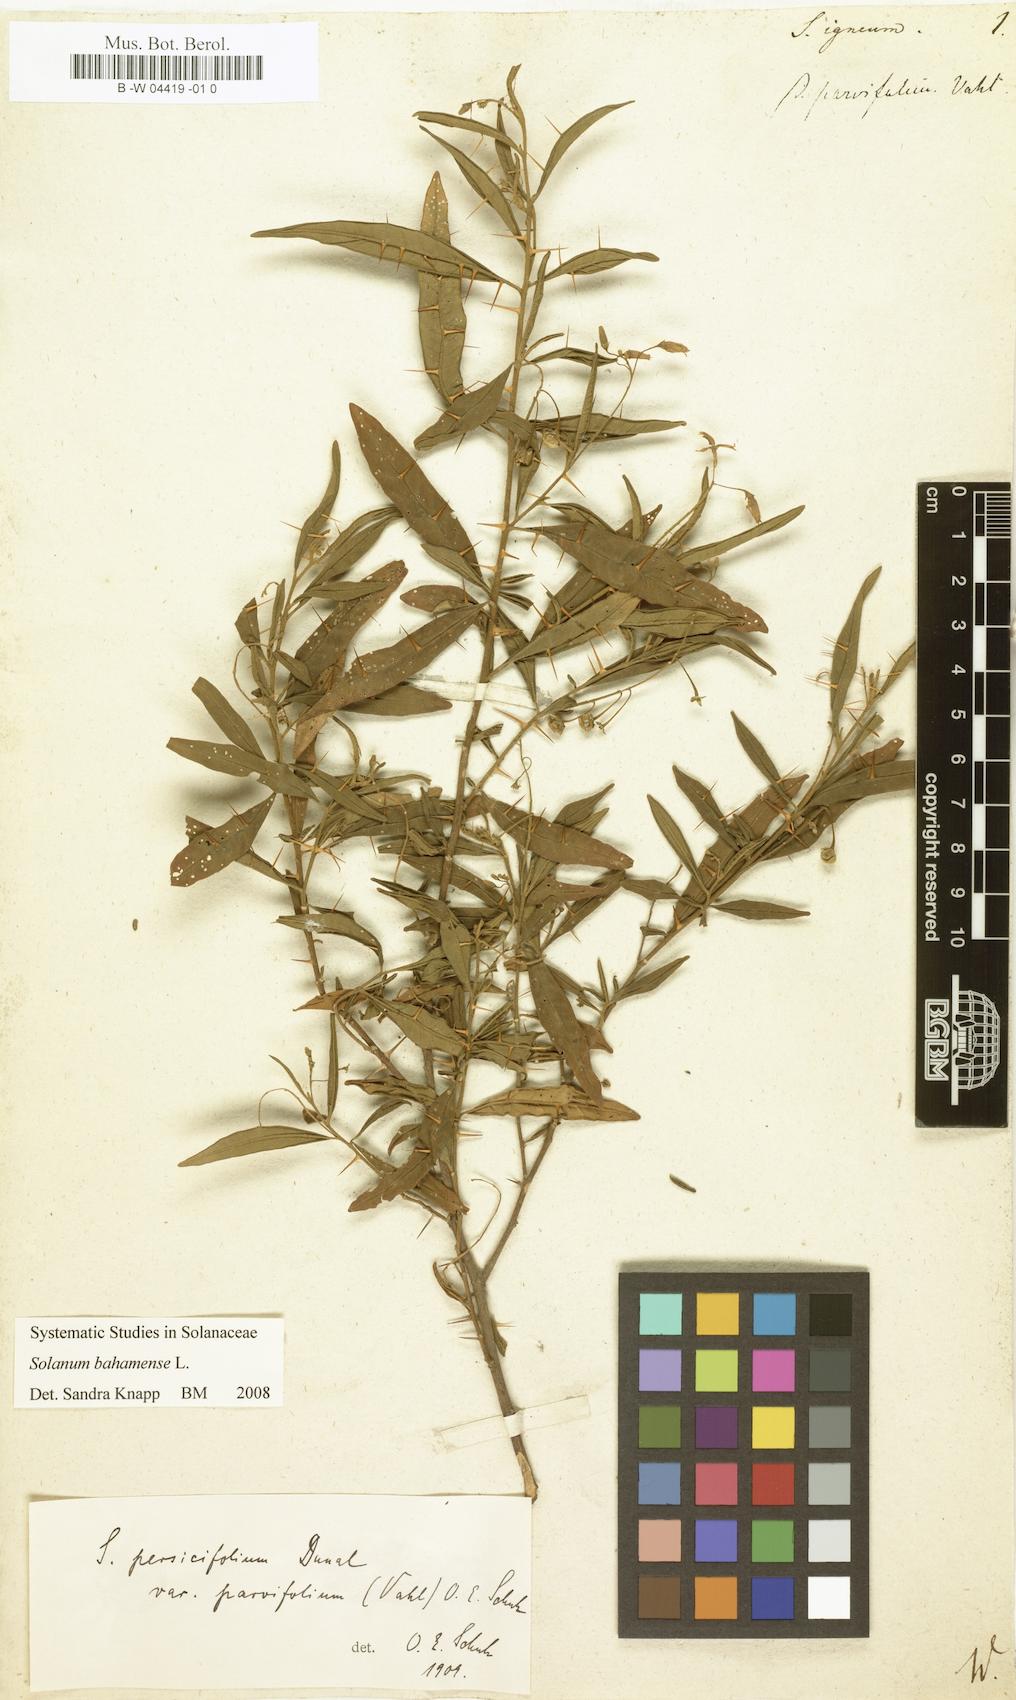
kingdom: Plantae
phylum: Tracheophyta
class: Magnoliopsida
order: Solanales
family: Solanaceae
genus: Solanum
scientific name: Solanum igneum
